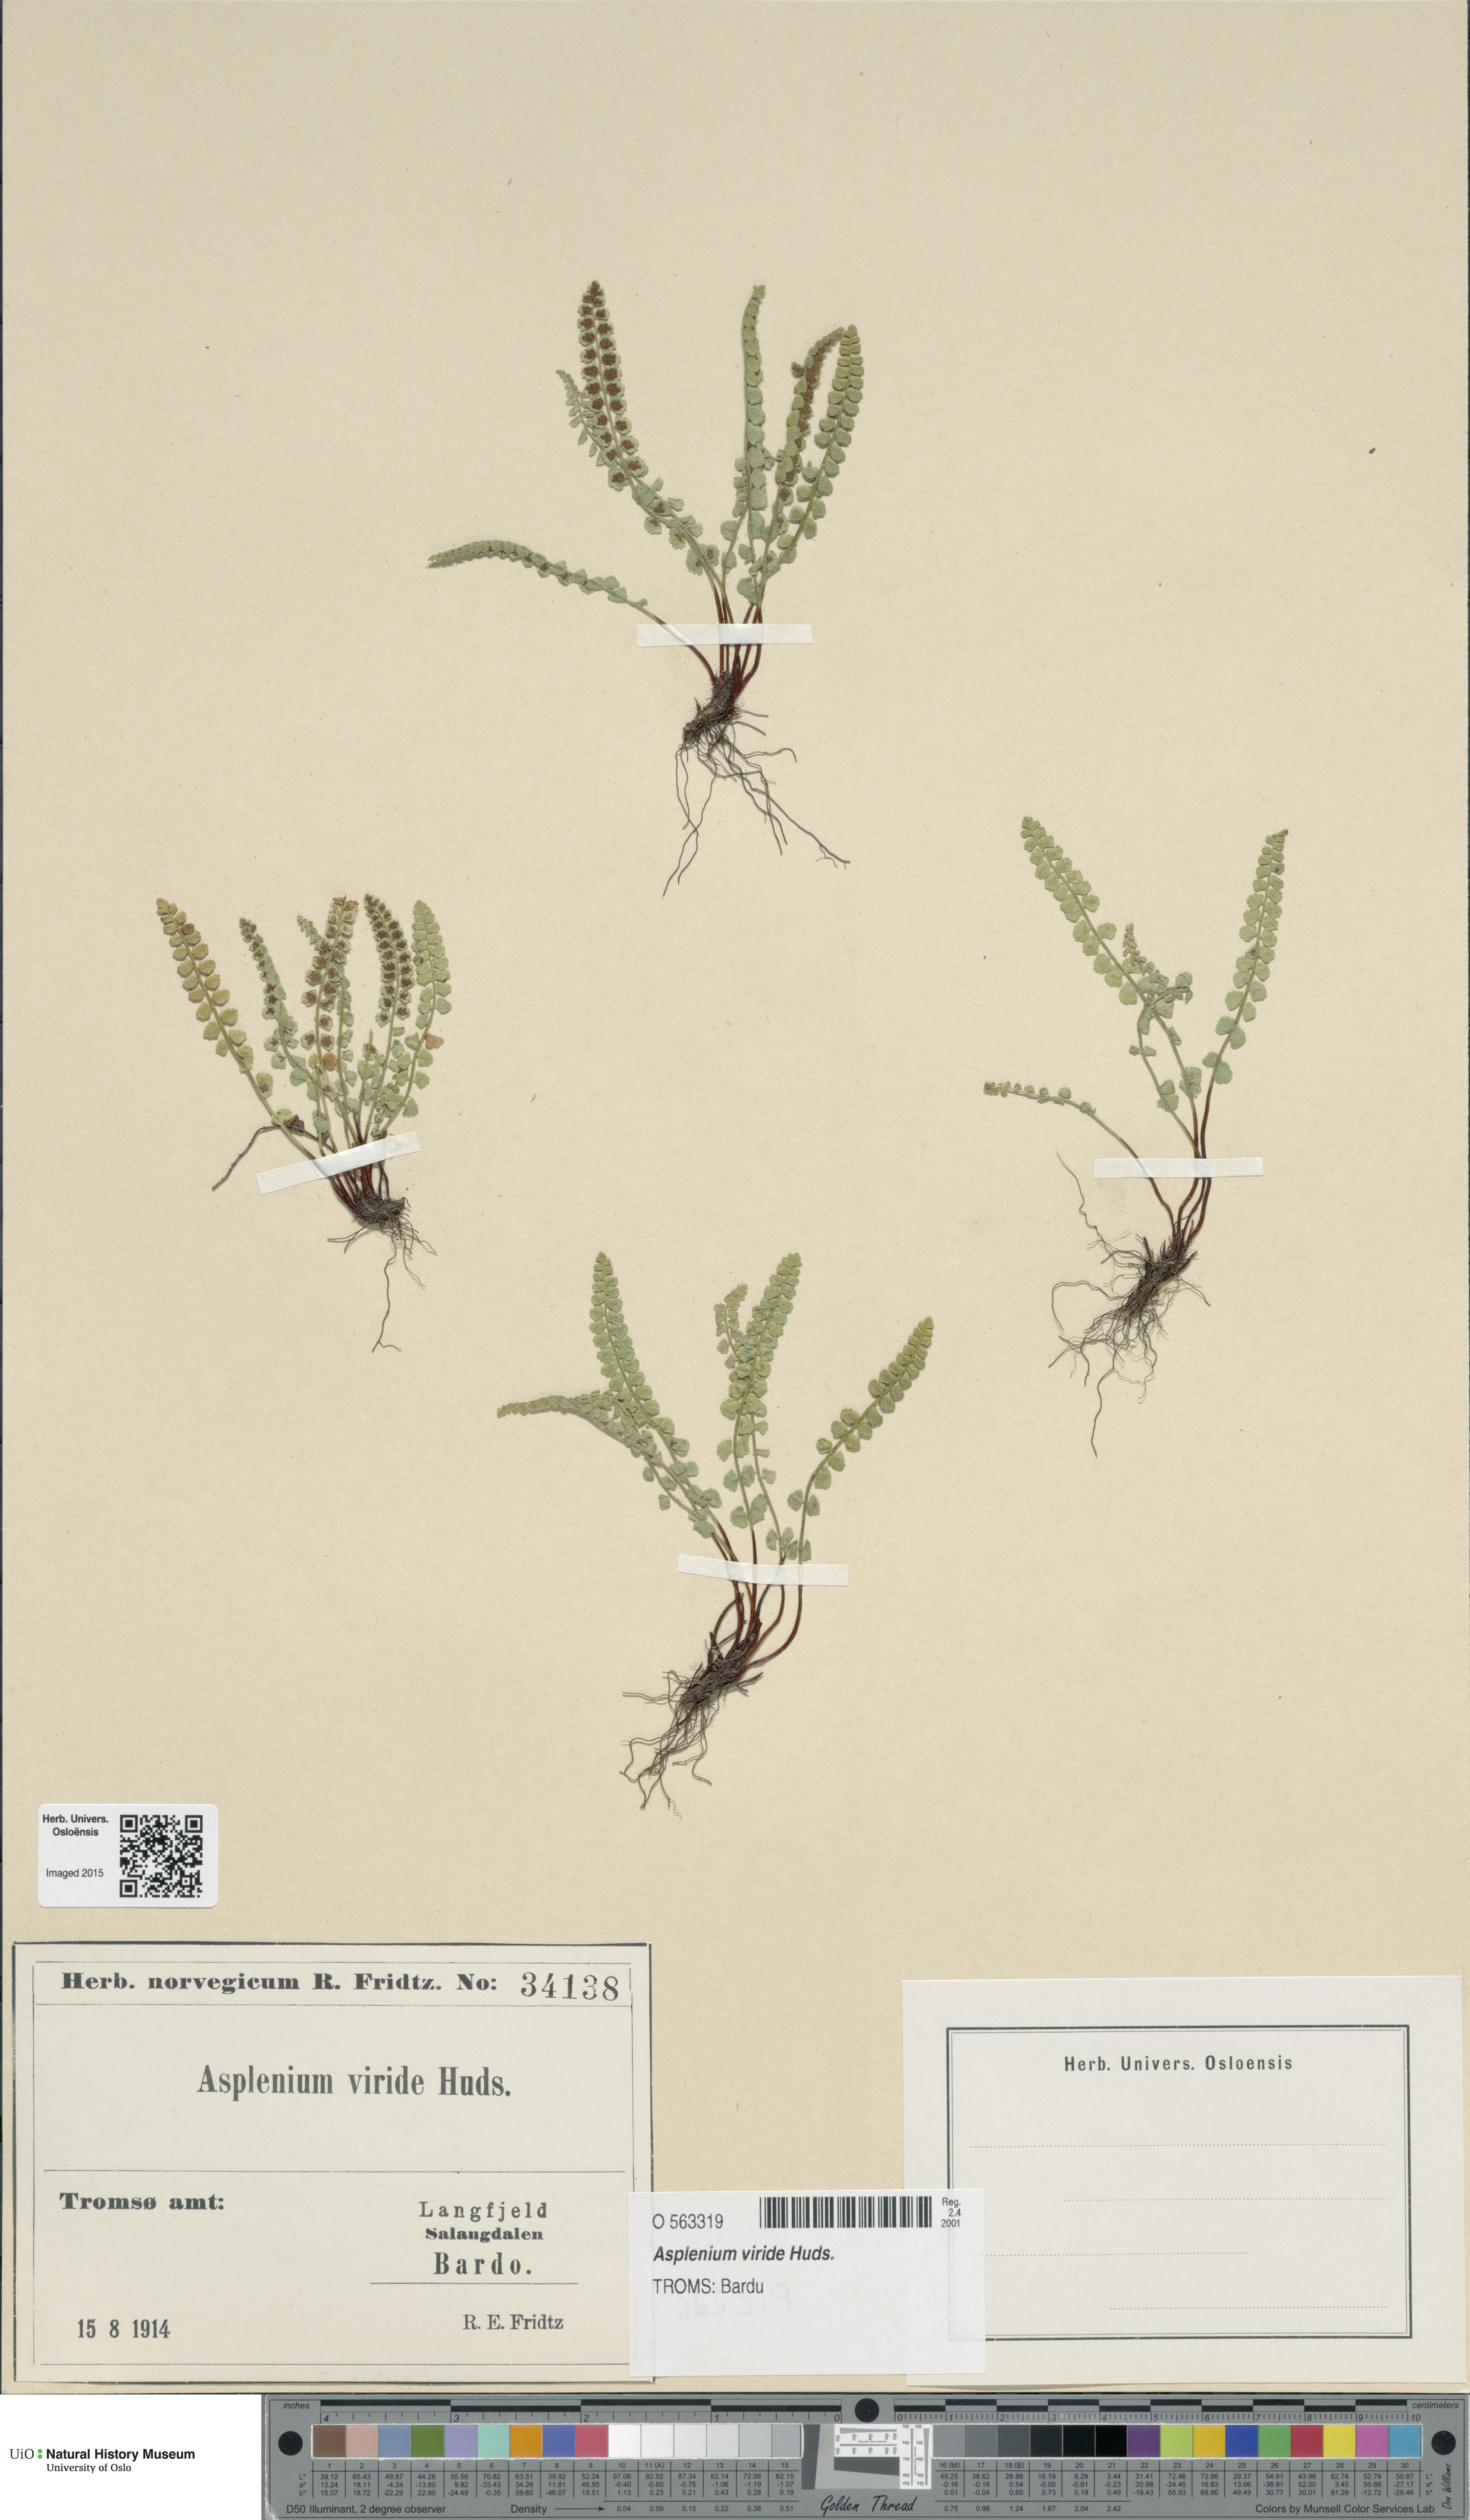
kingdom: Plantae
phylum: Tracheophyta
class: Polypodiopsida
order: Polypodiales
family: Aspleniaceae
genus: Asplenium
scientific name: Asplenium viride
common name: Green spleenwort
